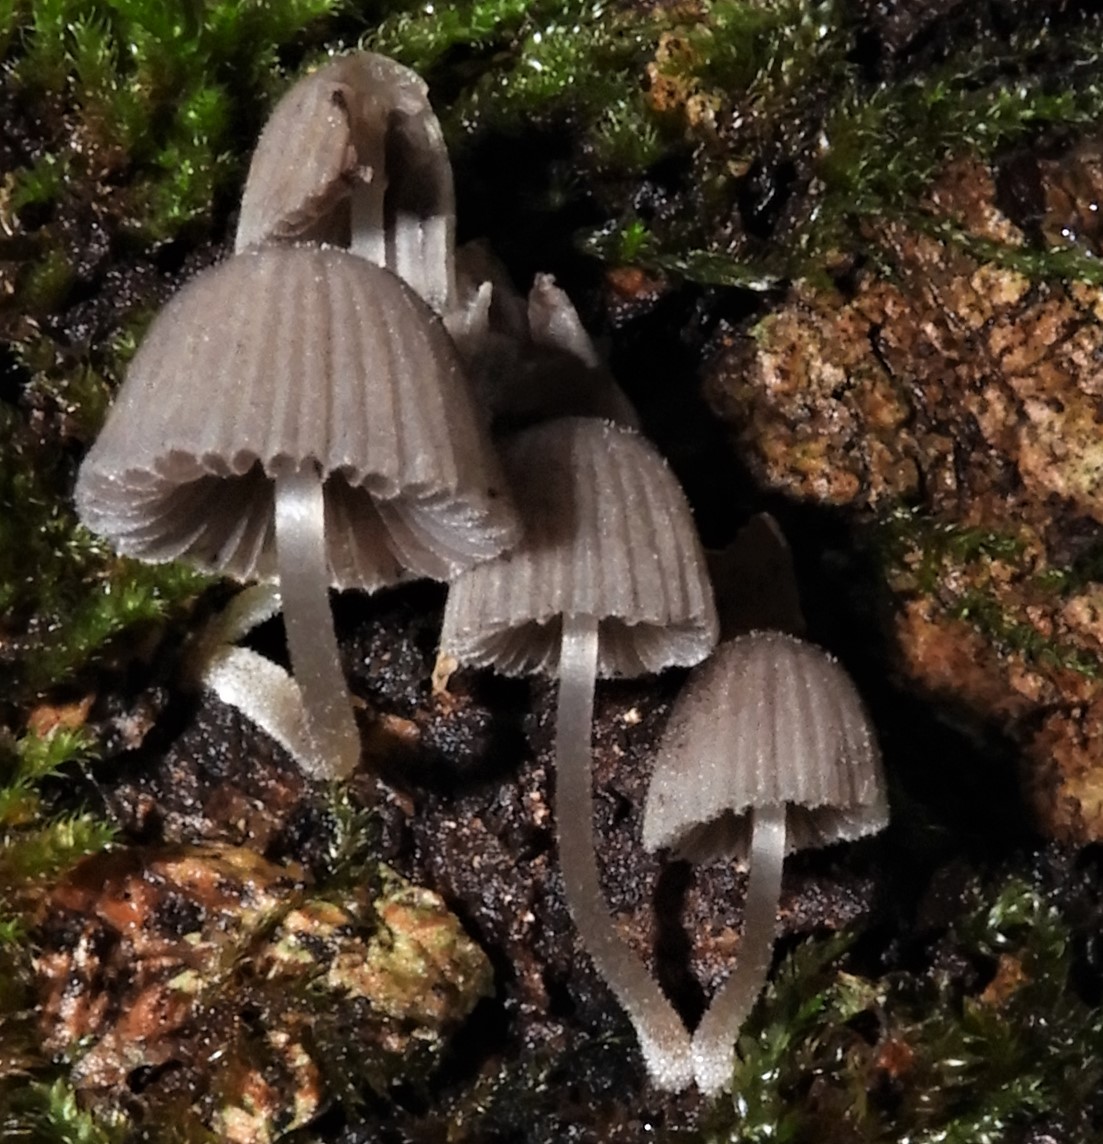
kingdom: Fungi
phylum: Basidiomycota
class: Agaricomycetes
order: Agaricales
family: Psathyrellaceae
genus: Coprinellus
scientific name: Coprinellus disseminatus
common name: bredsået blækhat
